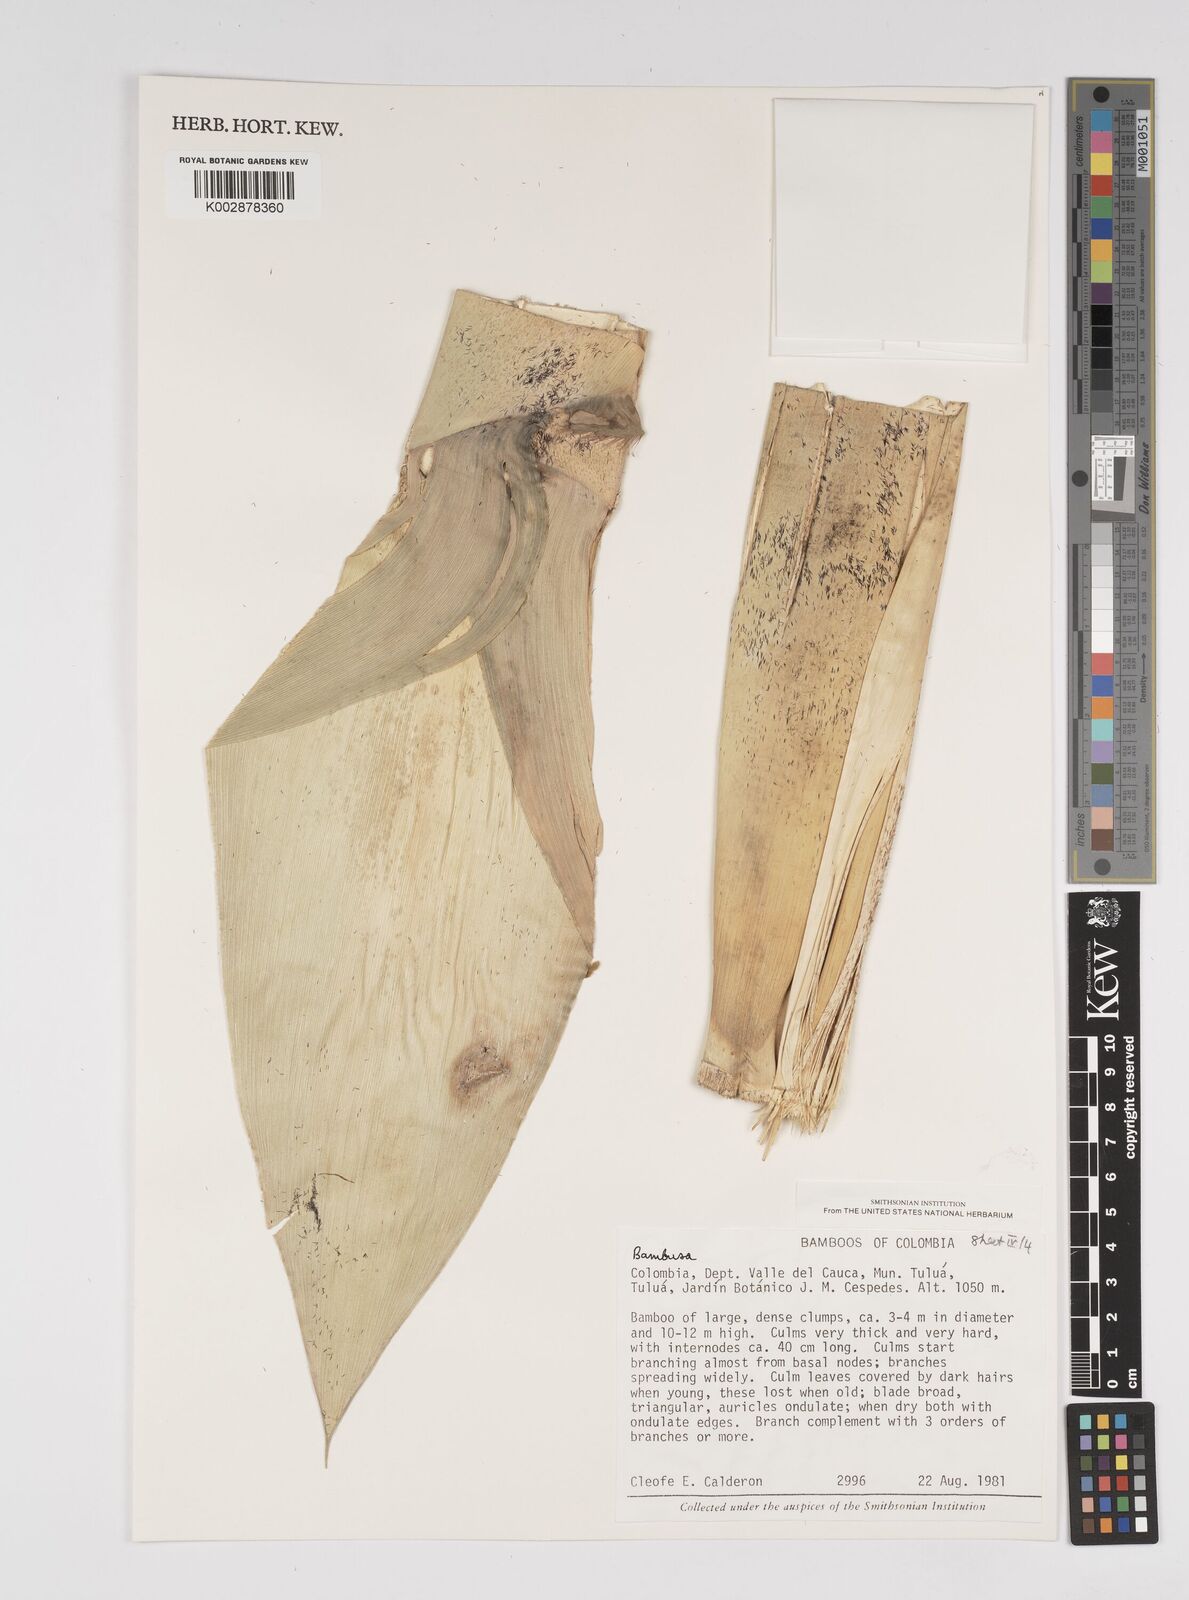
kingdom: Plantae
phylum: Tracheophyta
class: Liliopsida
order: Poales
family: Poaceae
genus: Bambusa
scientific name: Bambusa nutans
